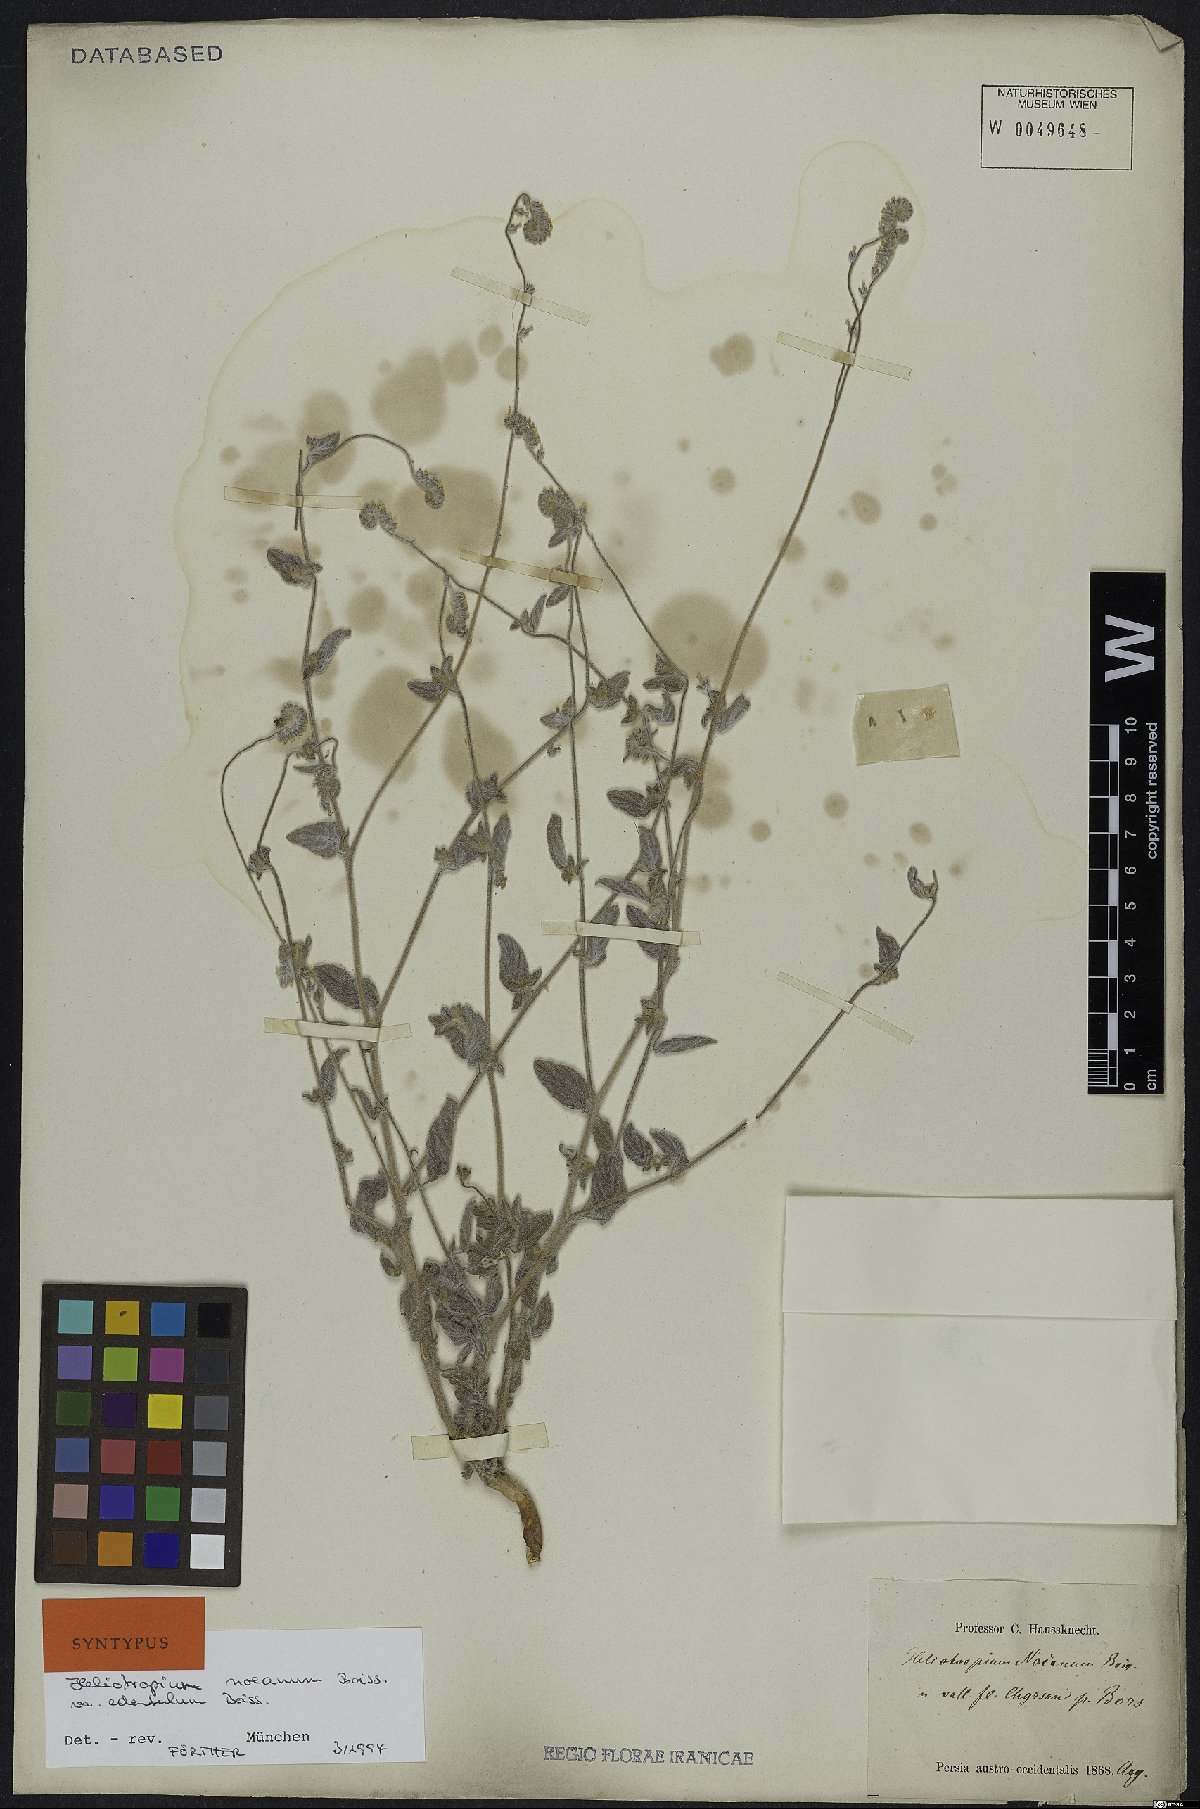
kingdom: Plantae
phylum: Tracheophyta
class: Magnoliopsida
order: Boraginales
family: Heliotropiaceae
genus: Heliotropium
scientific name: Heliotropium noeanum
